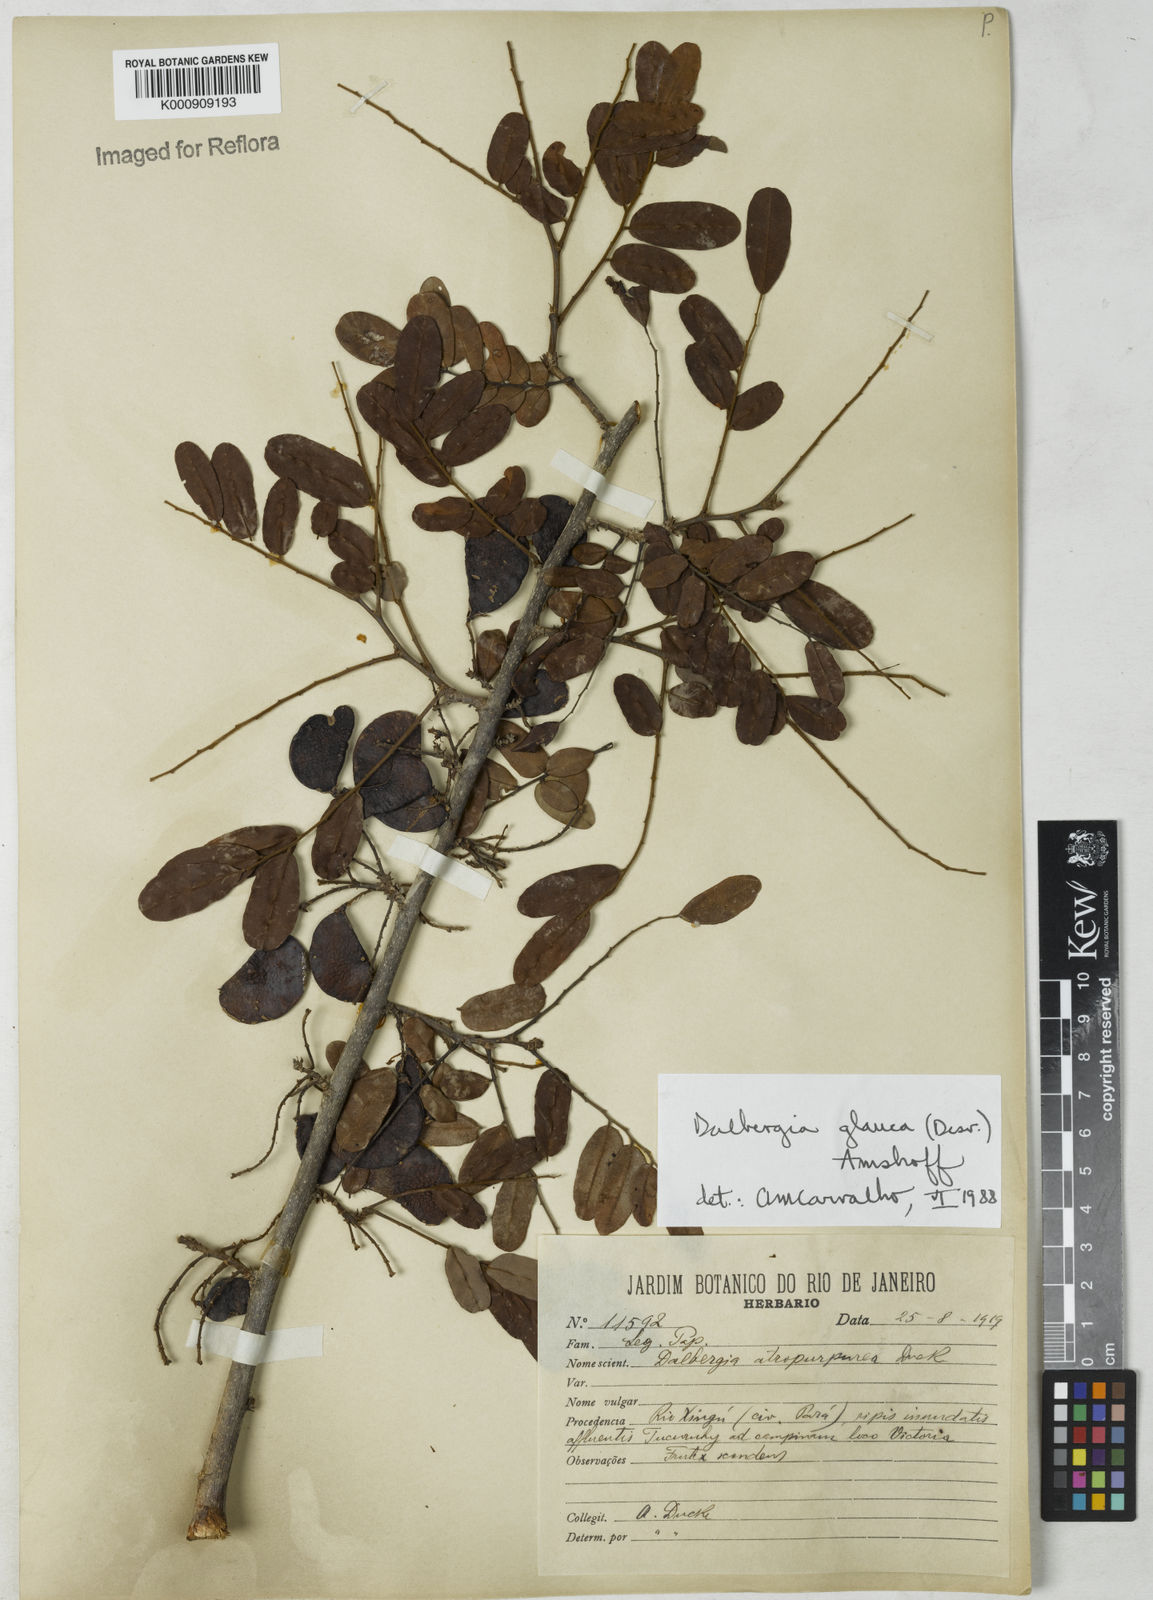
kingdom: Plantae
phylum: Tracheophyta
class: Magnoliopsida
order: Fabales
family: Fabaceae
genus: Dalbergia
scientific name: Dalbergia atropurpurea
